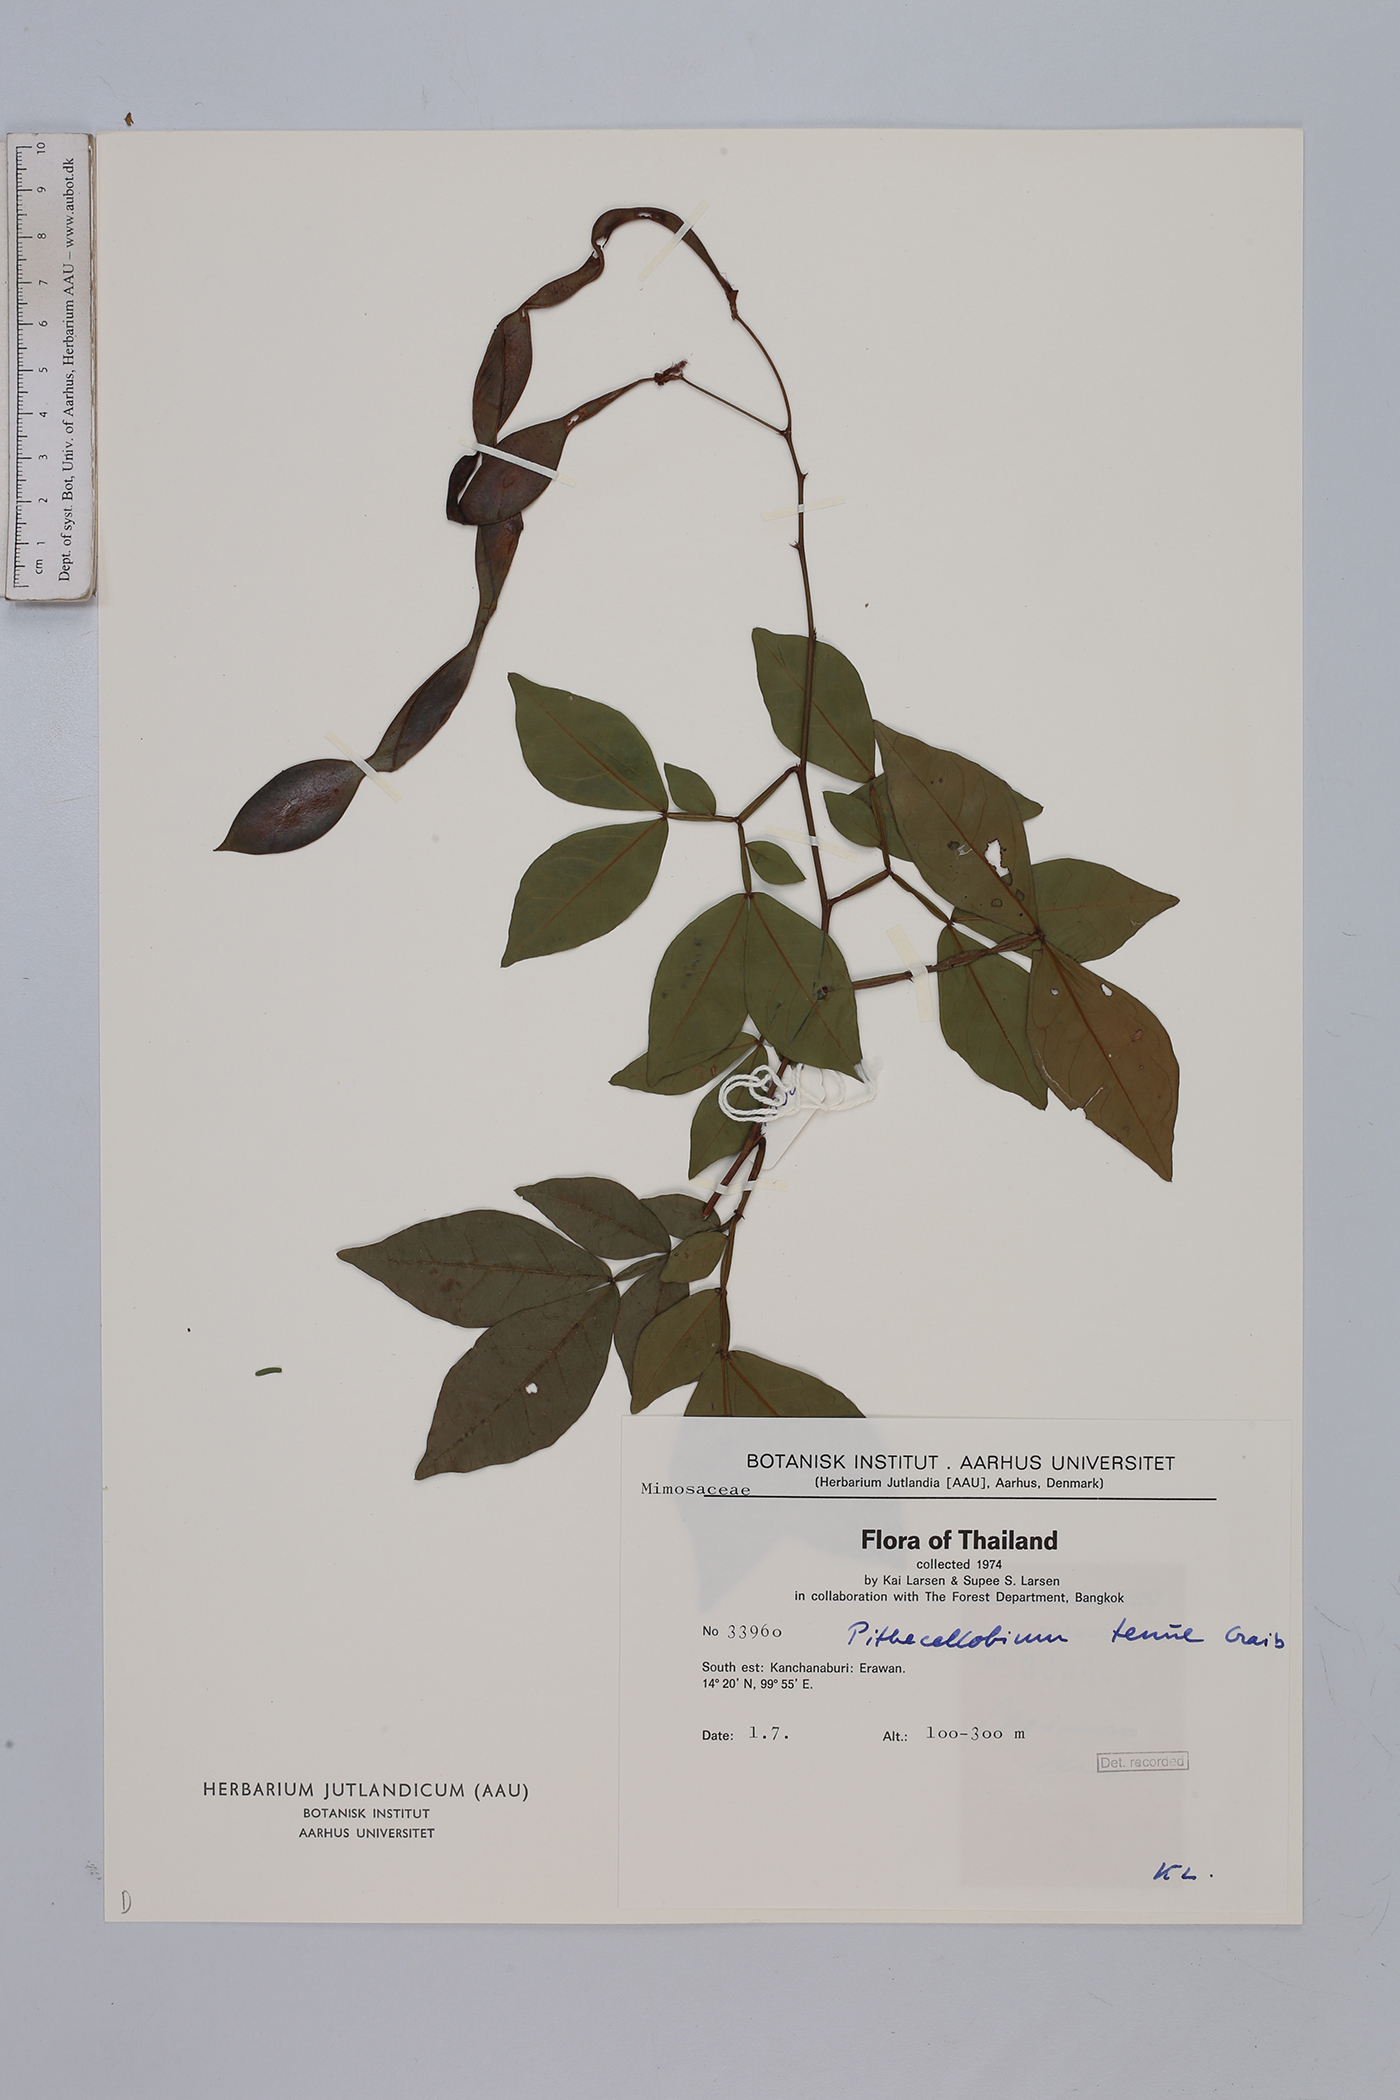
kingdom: Plantae
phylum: Tracheophyta
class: Magnoliopsida
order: Fabales
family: Fabaceae
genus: Thailentadopsis
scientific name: Thailentadopsis tenuis
